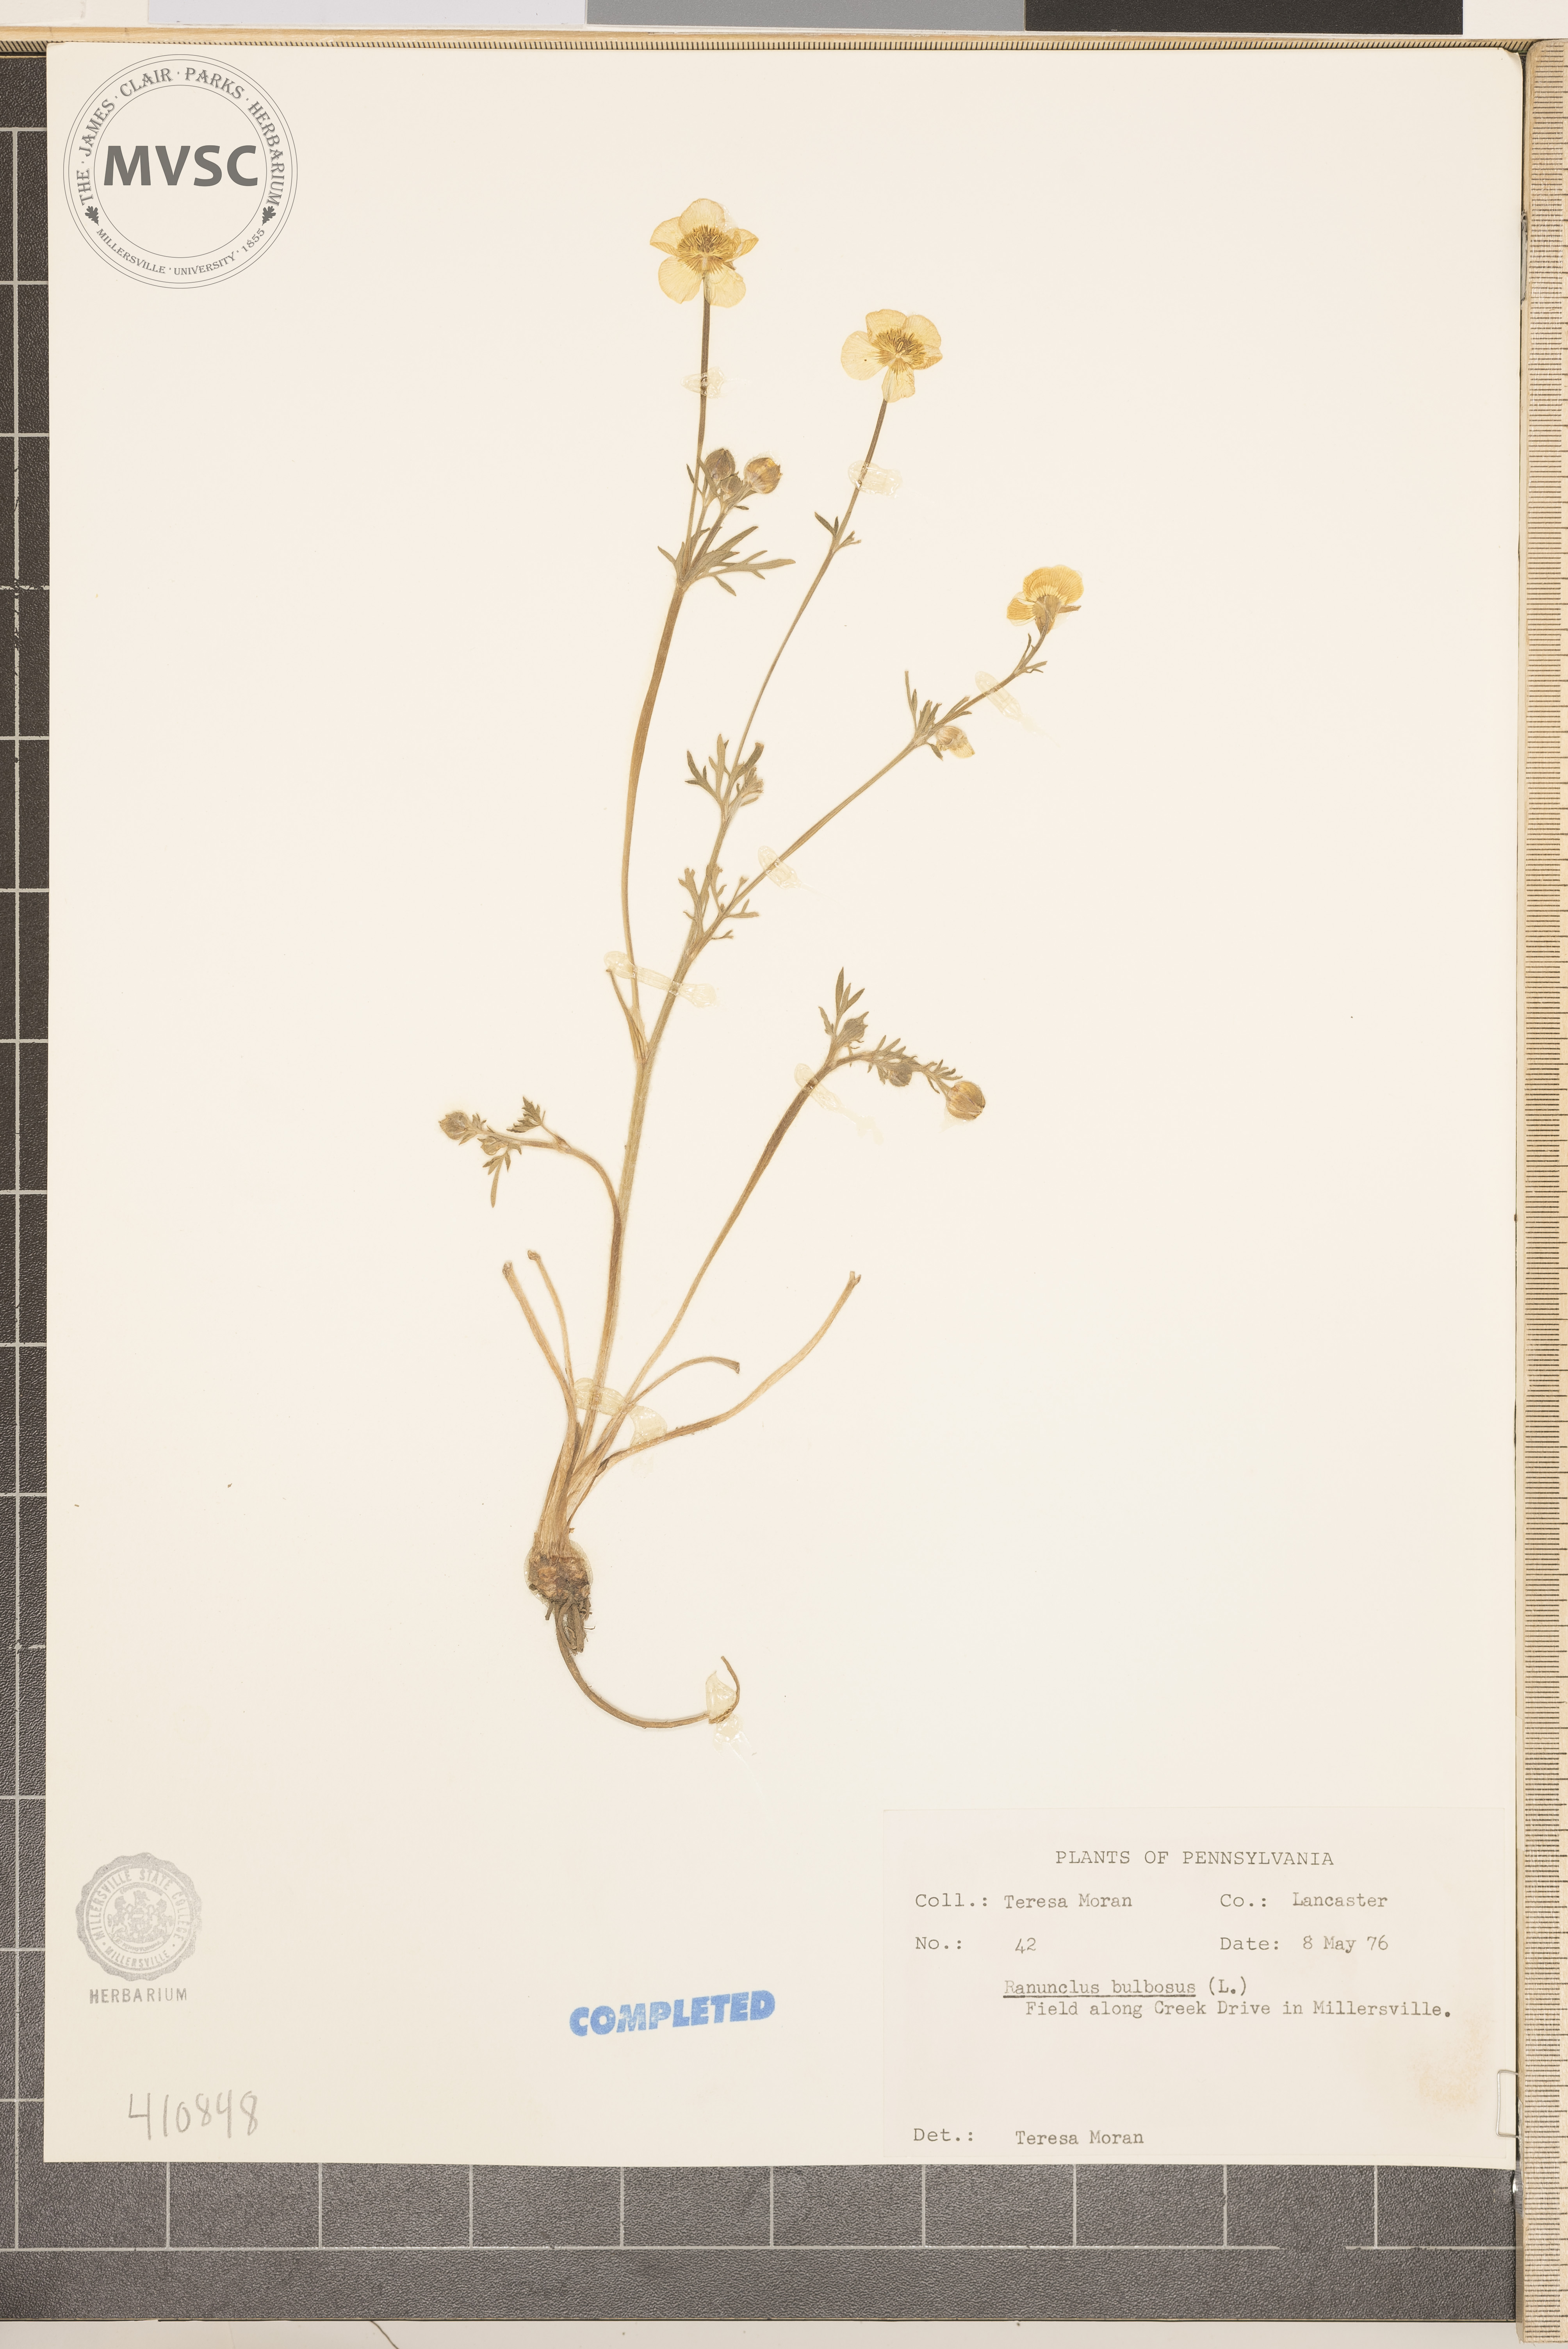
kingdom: Plantae
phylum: Tracheophyta
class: Magnoliopsida
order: Ranunculales
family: Ranunculaceae
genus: Ranunculus
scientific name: Ranunculus bulbosus
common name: Bulbous buttercup
